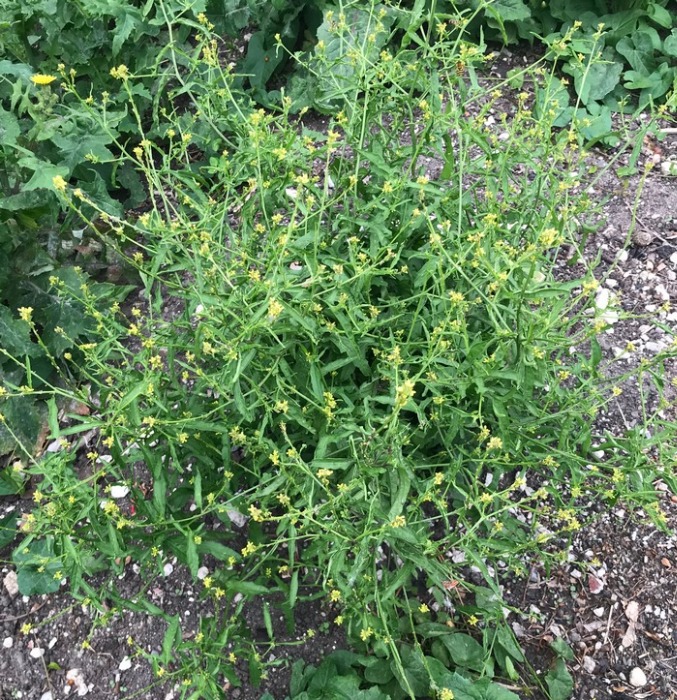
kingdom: Plantae
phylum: Tracheophyta
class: Magnoliopsida
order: Brassicales
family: Brassicaceae
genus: Sisymbrium
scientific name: Sisymbrium officinale
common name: Rank vejsennep
